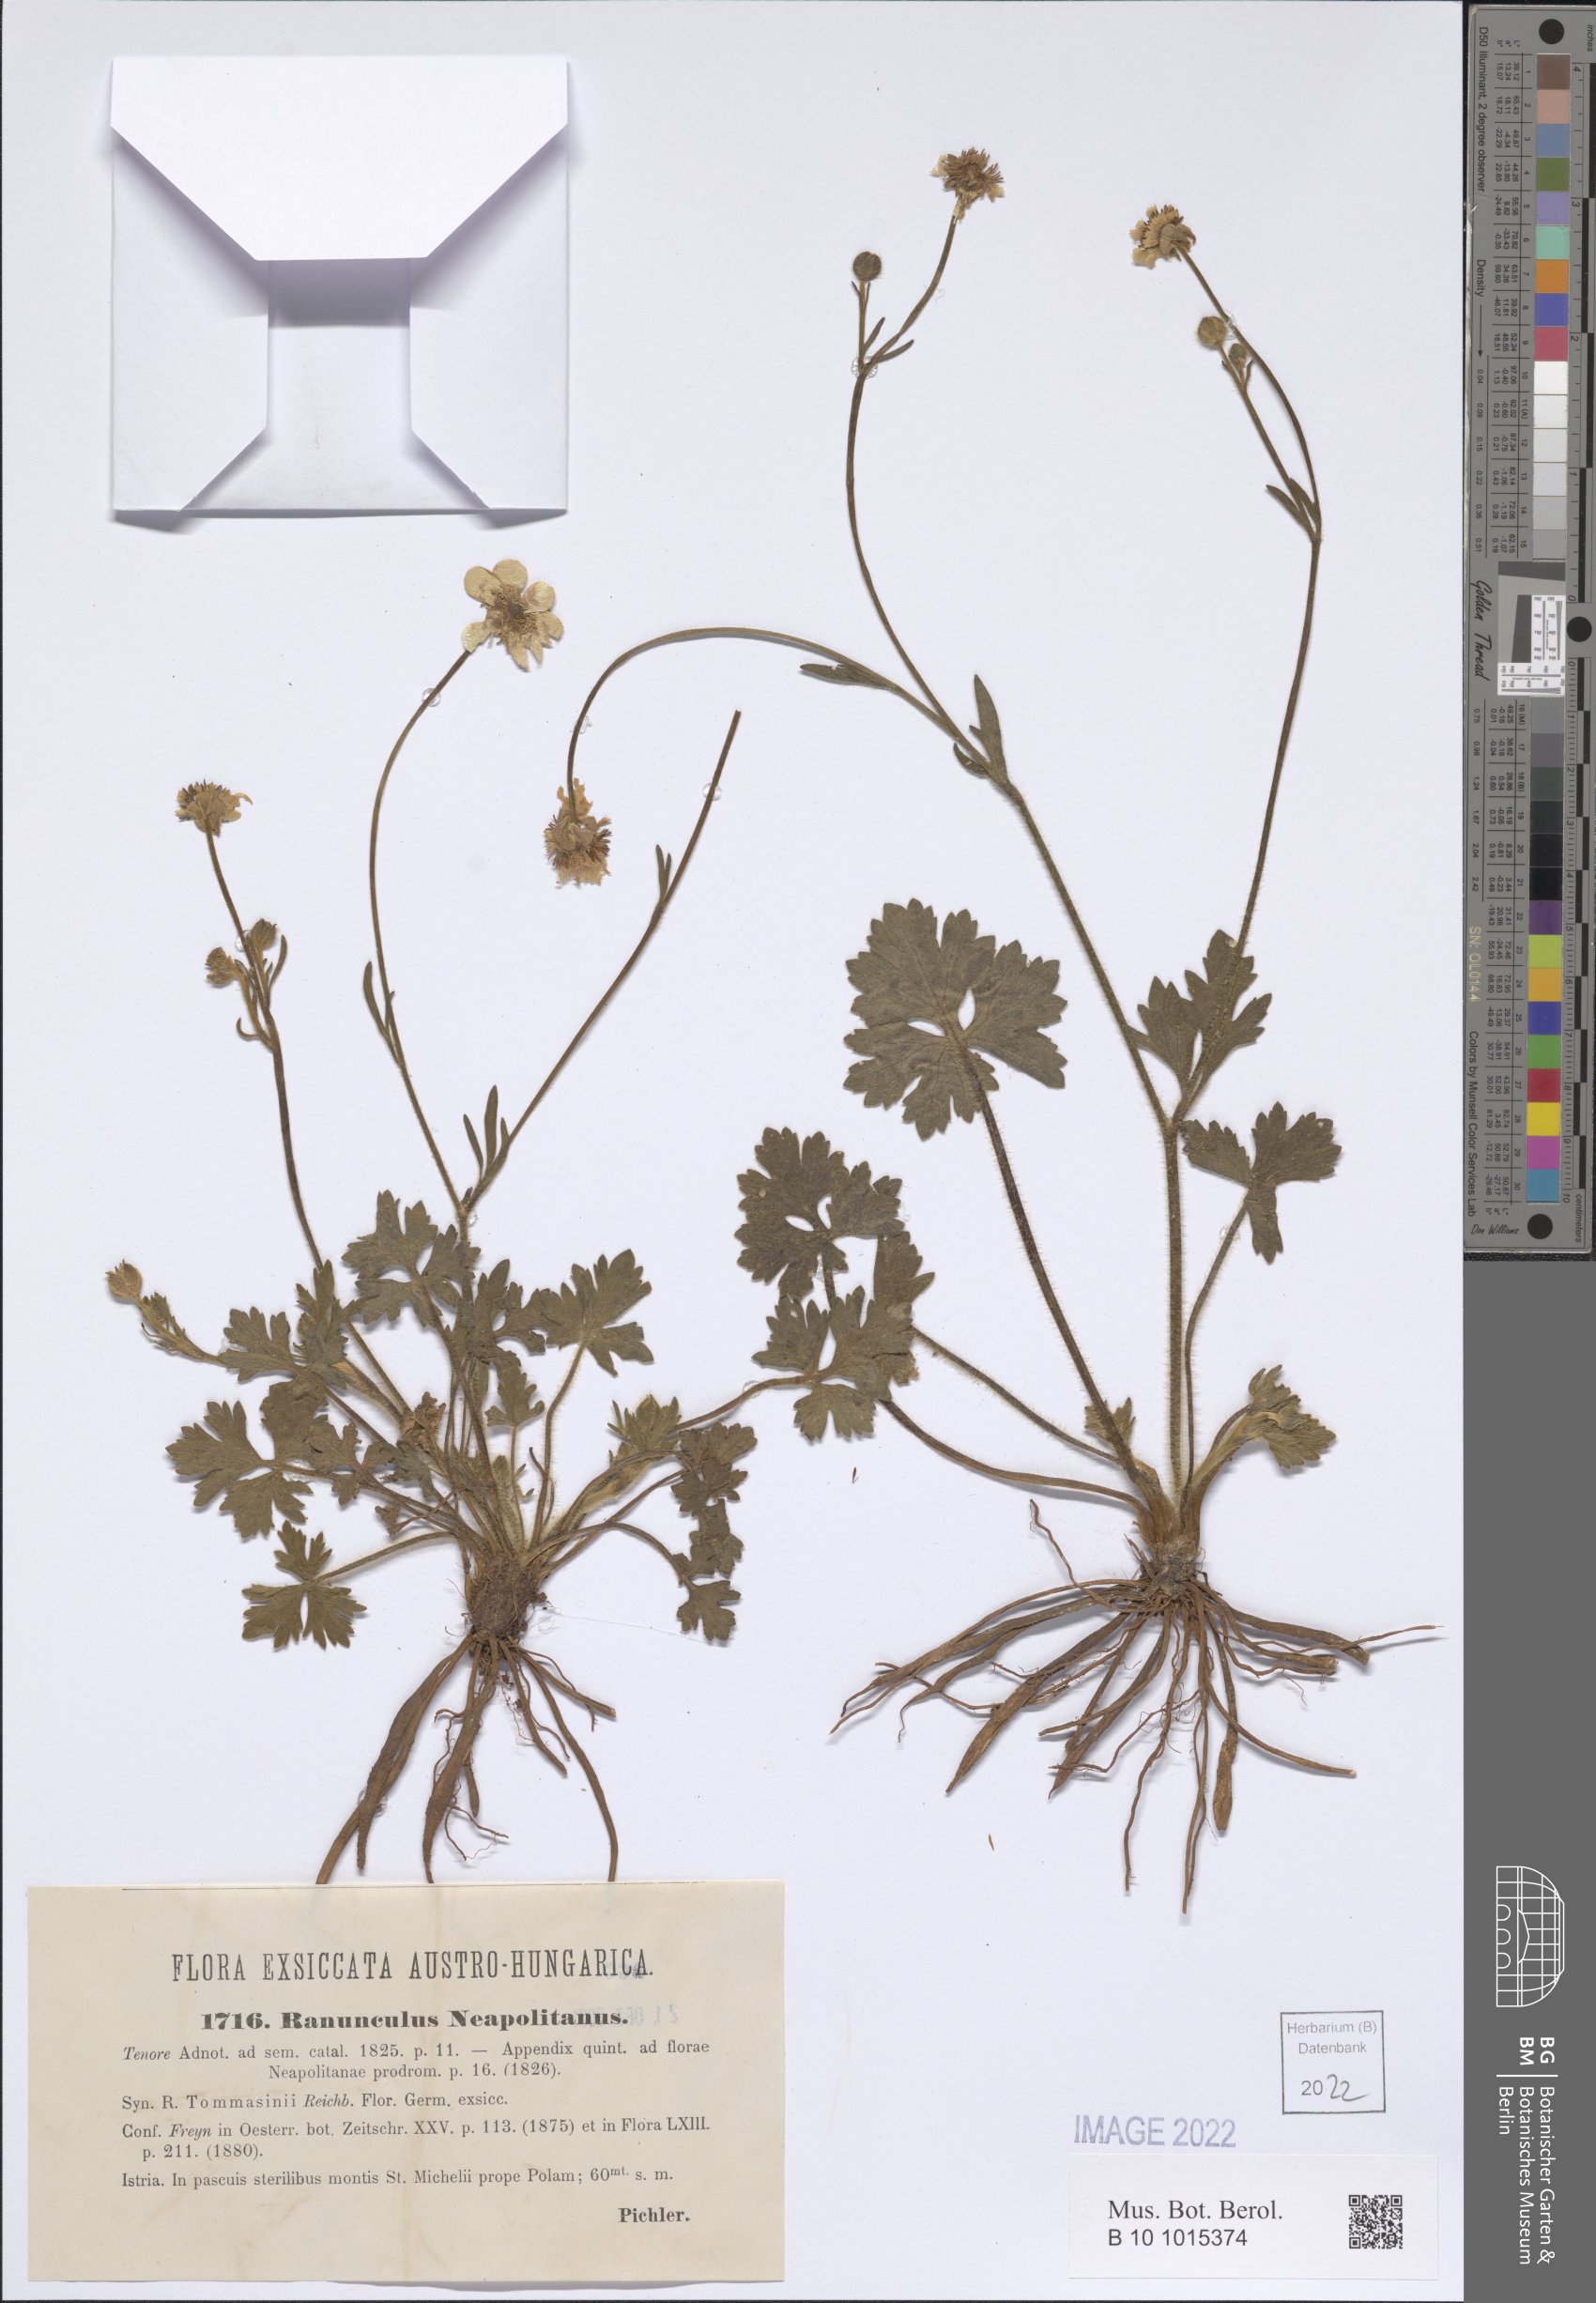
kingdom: Plantae
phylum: Tracheophyta
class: Magnoliopsida
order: Ranunculales
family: Ranunculaceae
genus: Ranunculus
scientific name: Ranunculus neapolitanus
